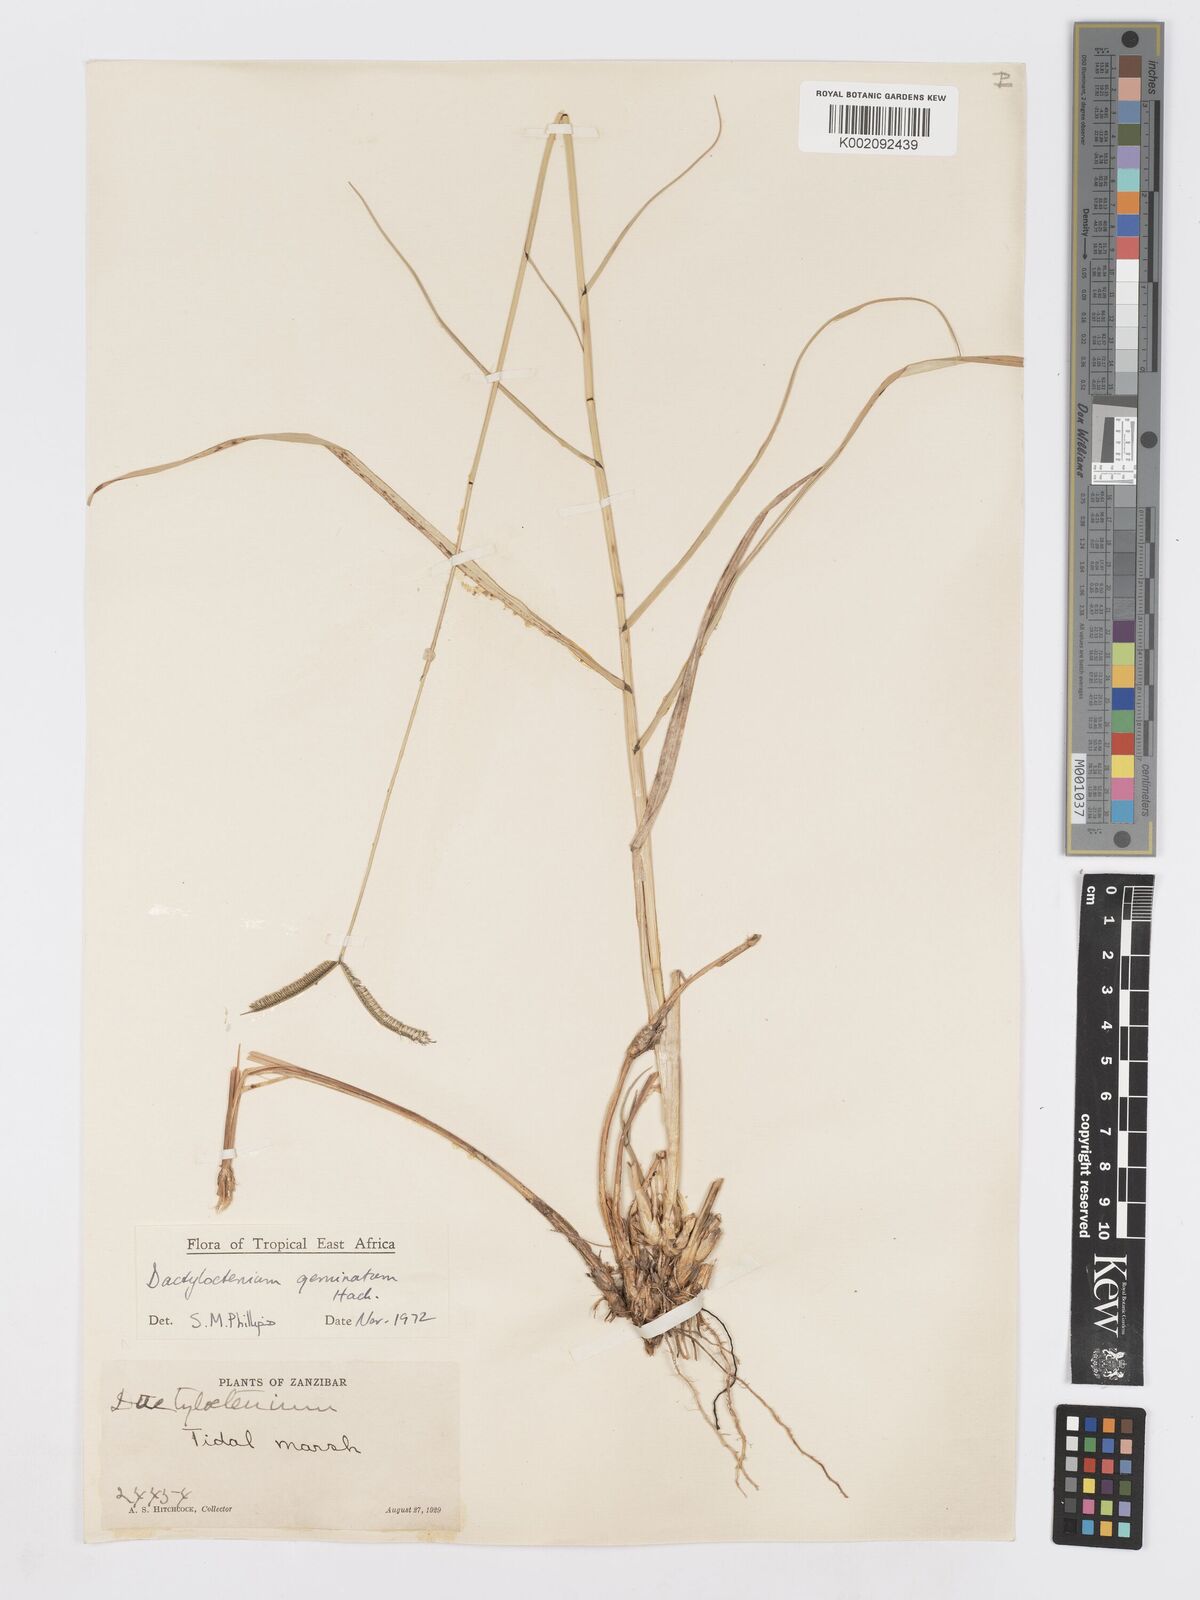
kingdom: Plantae
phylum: Tracheophyta
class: Liliopsida
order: Poales
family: Poaceae
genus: Dactyloctenium
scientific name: Dactyloctenium geminatum
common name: Crowsfoot grass
